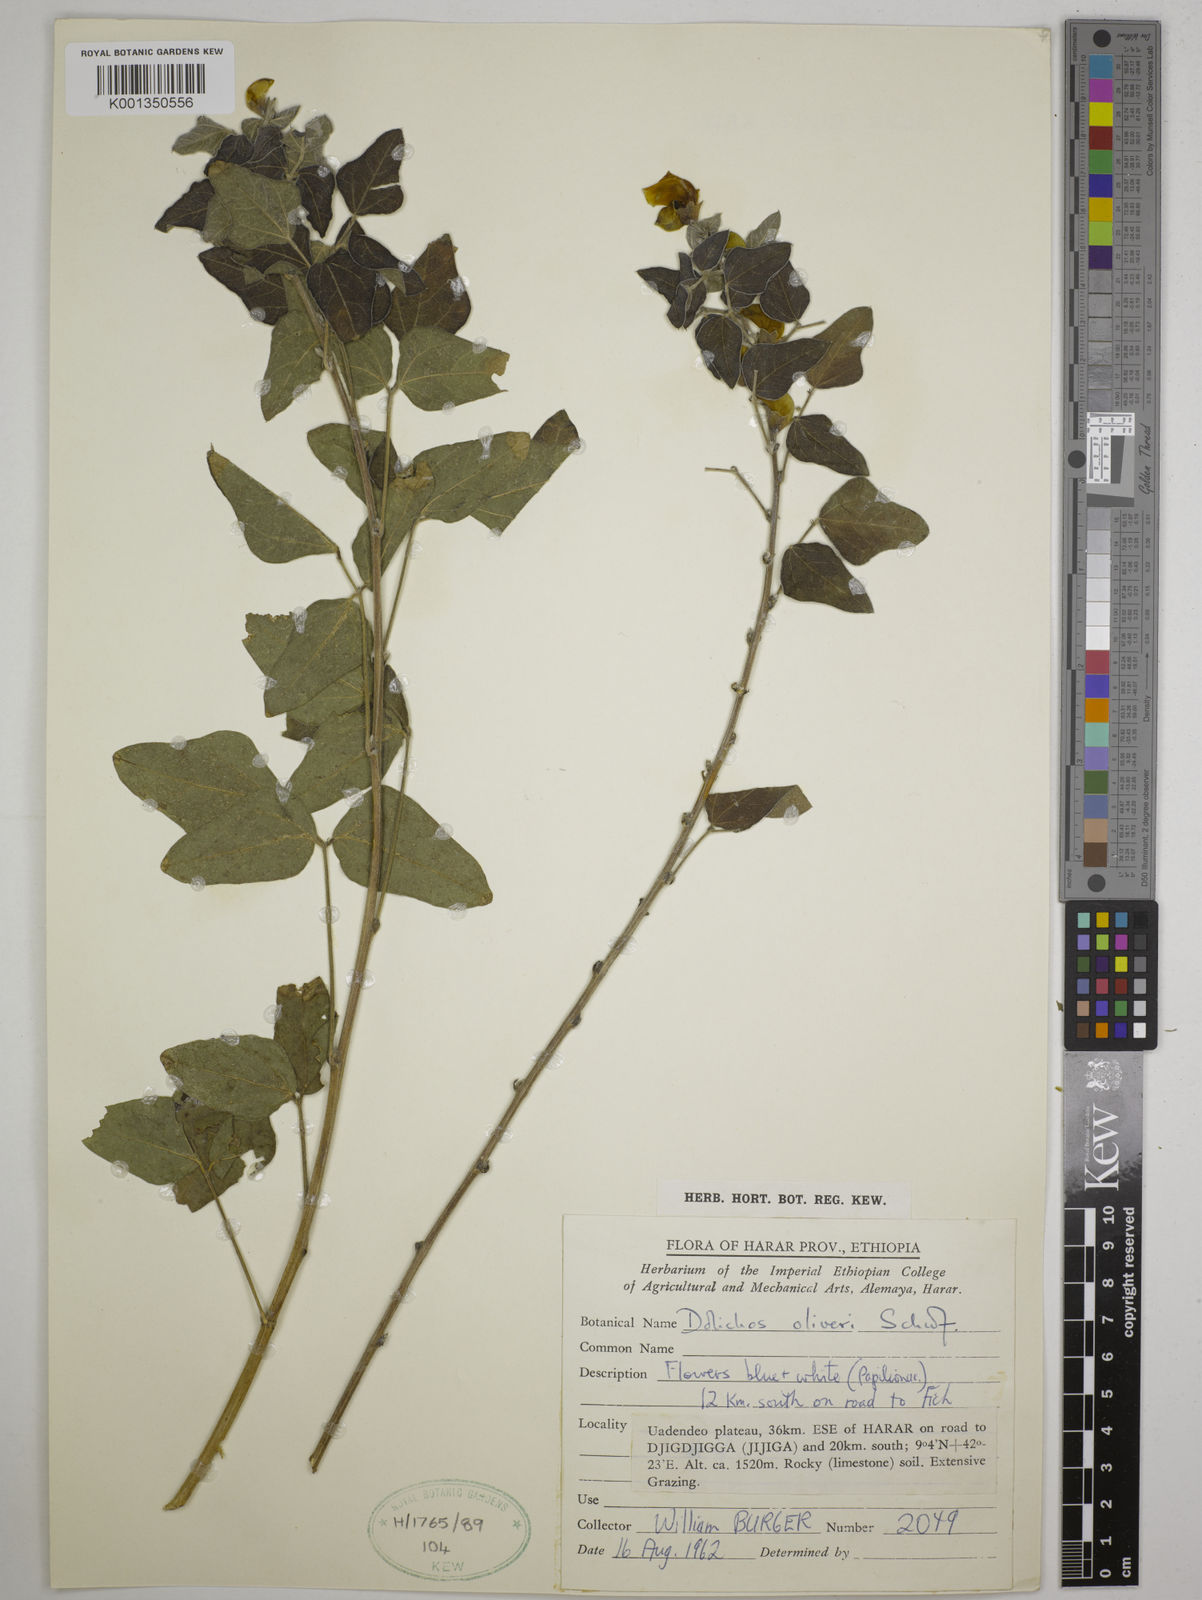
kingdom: Plantae
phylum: Tracheophyta
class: Magnoliopsida
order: Fabales
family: Fabaceae
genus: Dolichos
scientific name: Dolichos oliveri
